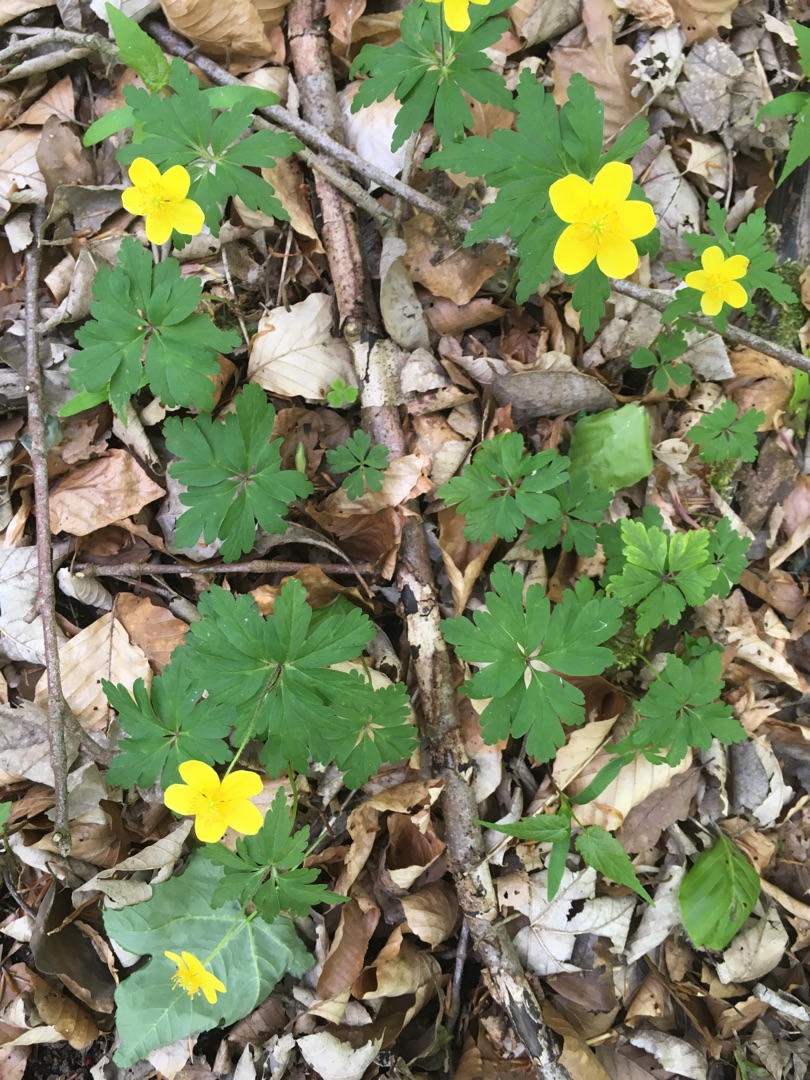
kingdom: Plantae
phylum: Tracheophyta
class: Magnoliopsida
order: Ranunculales
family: Ranunculaceae
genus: Anemone
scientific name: Anemone ranunculoides
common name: Gul anemone
